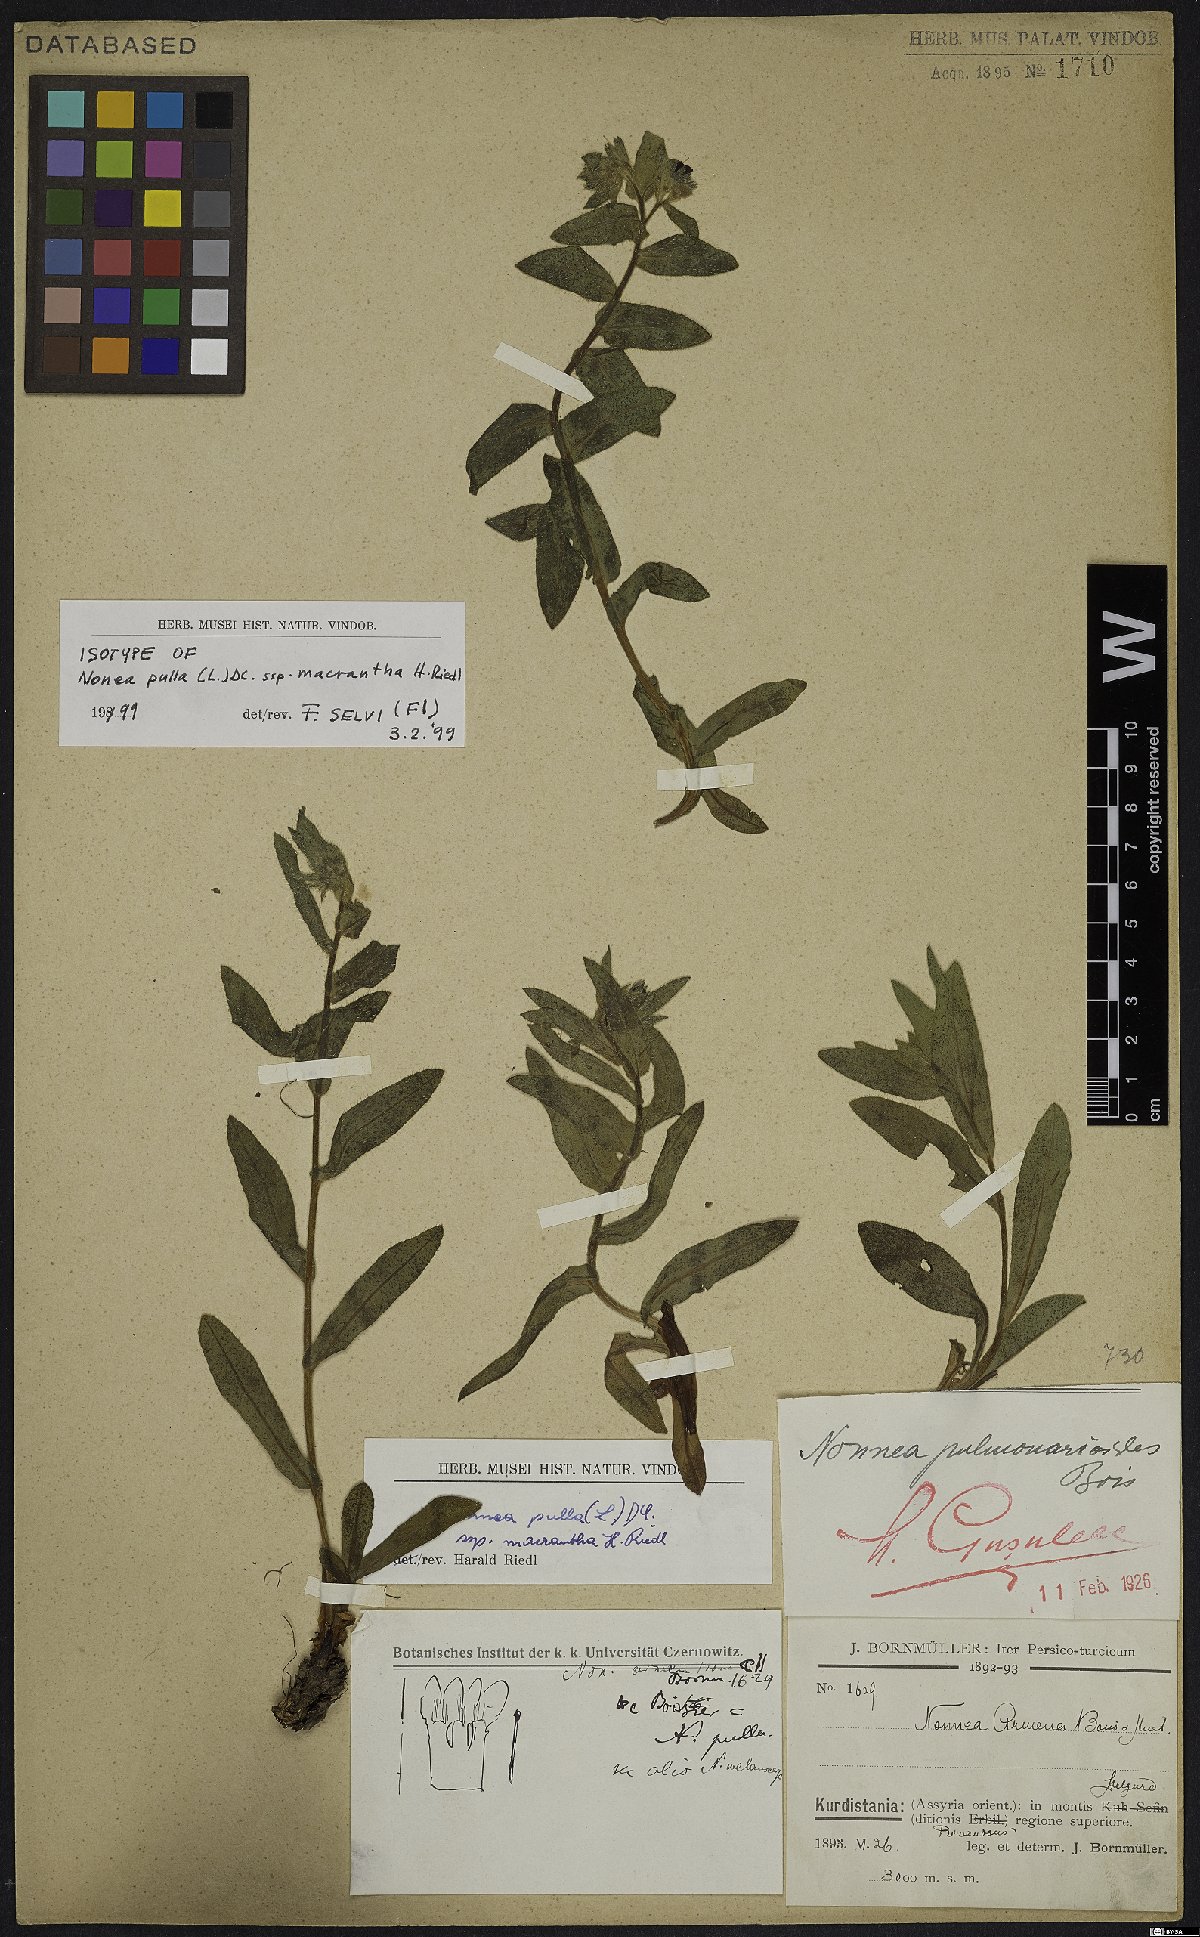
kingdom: Plantae
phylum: Tracheophyta
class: Magnoliopsida
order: Boraginales
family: Boraginaceae
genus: Nonea
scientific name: Nonea macrantha
